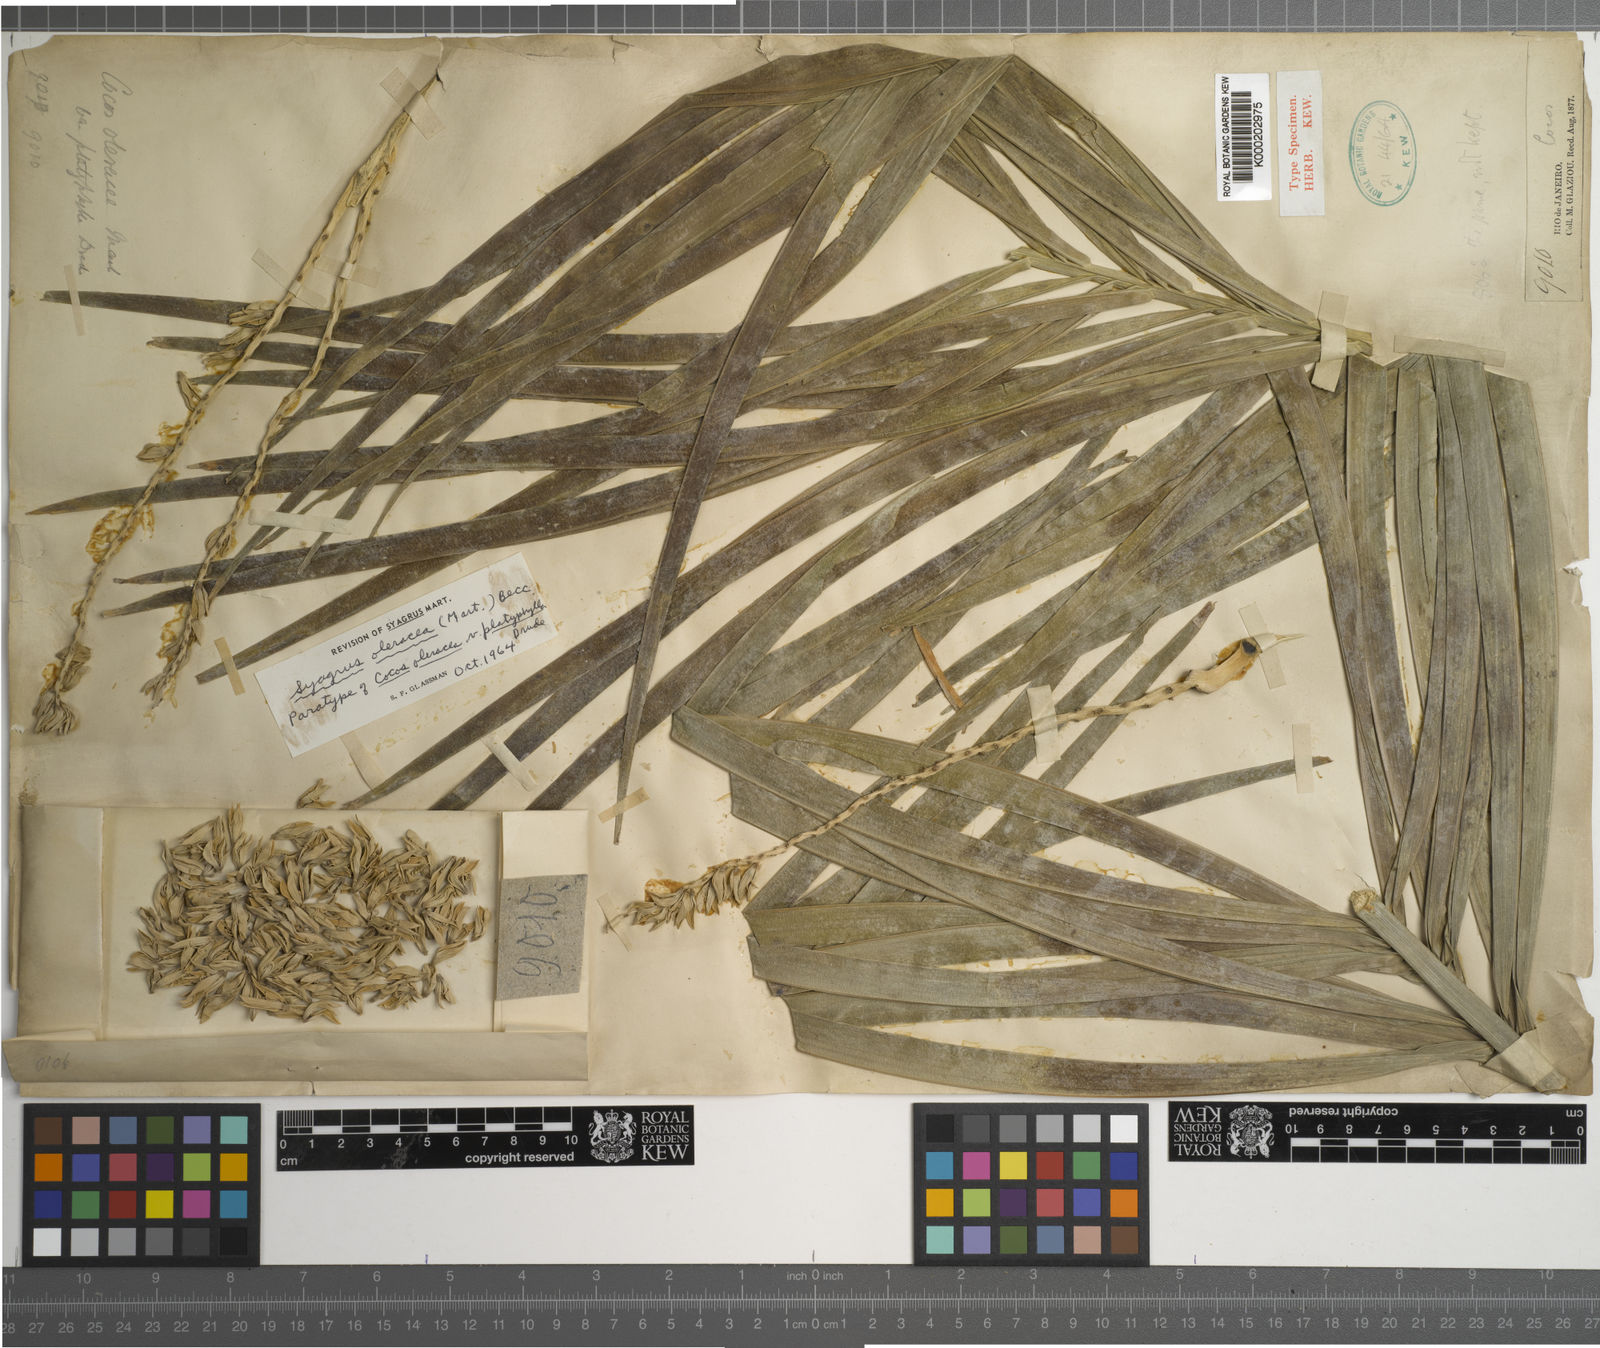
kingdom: Plantae
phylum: Tracheophyta
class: Liliopsida
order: Arecales
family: Arecaceae
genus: Syagrus
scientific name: Syagrus oleracea
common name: Catole palm
